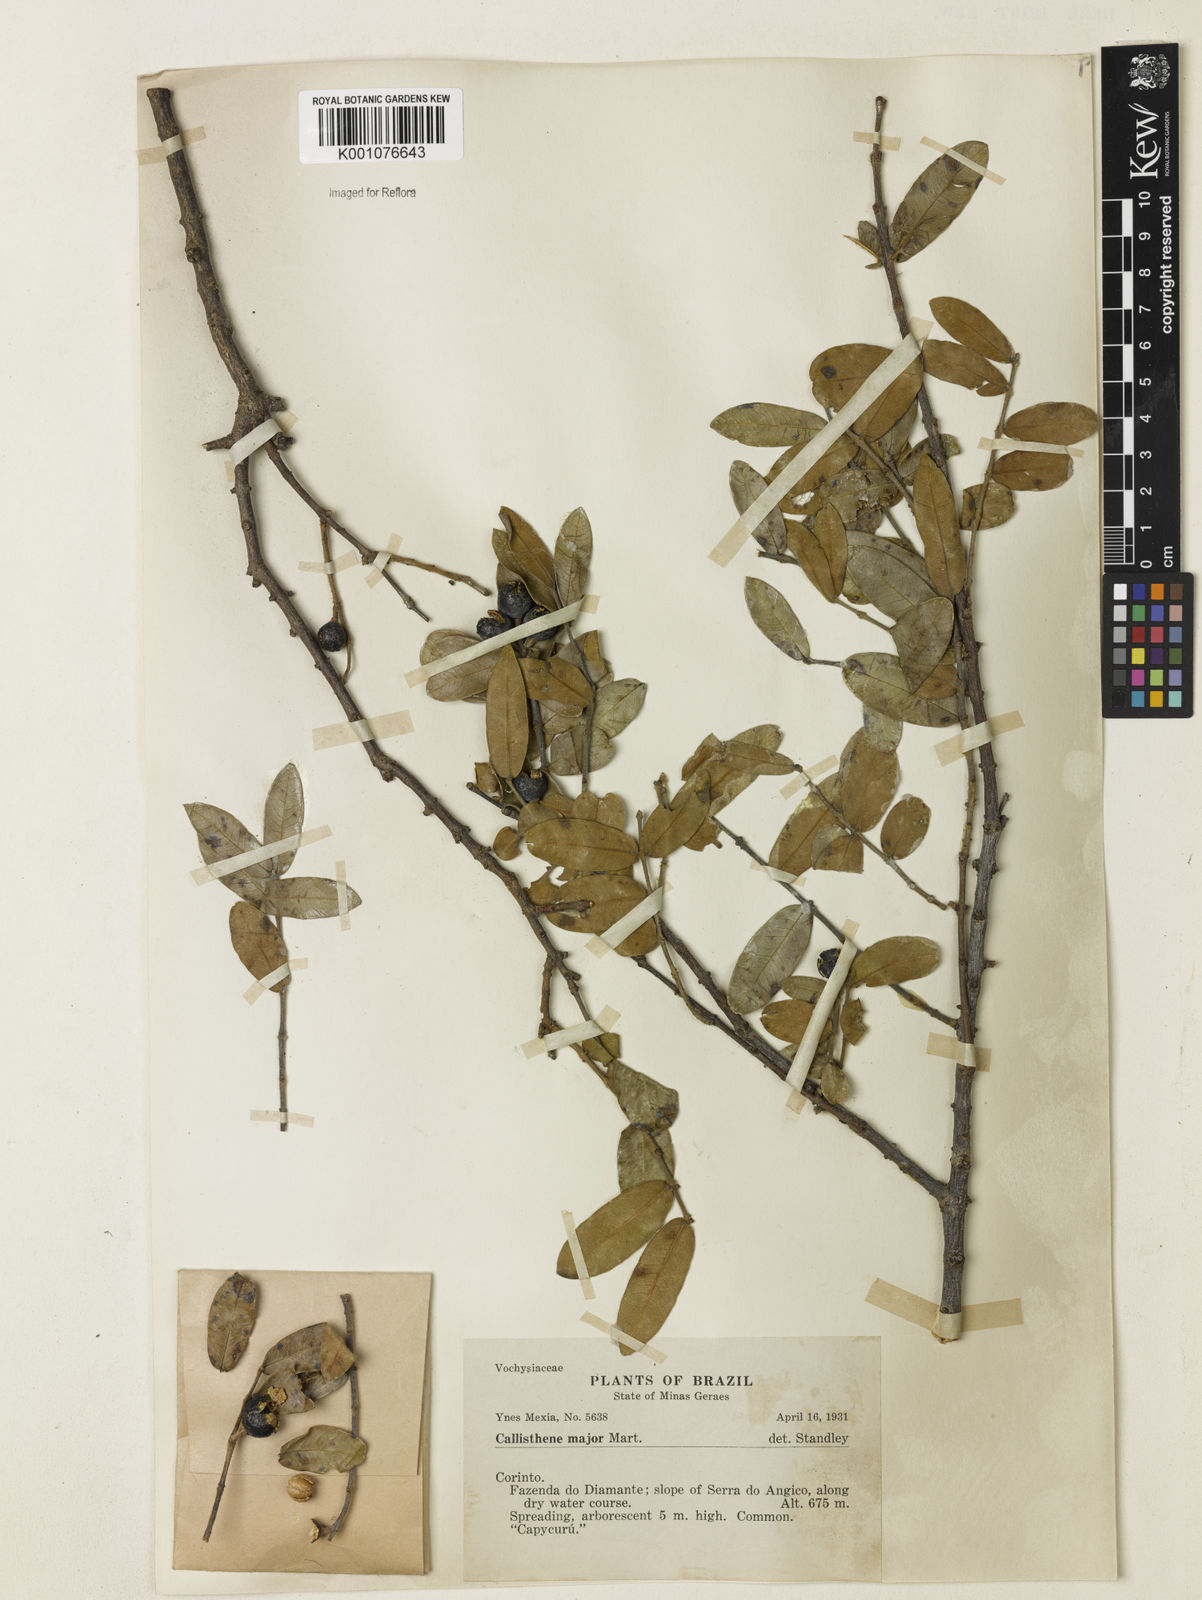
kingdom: Plantae
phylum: Tracheophyta
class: Magnoliopsida
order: Myrtales
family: Vochysiaceae
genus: Callisthene
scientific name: Callisthene major
